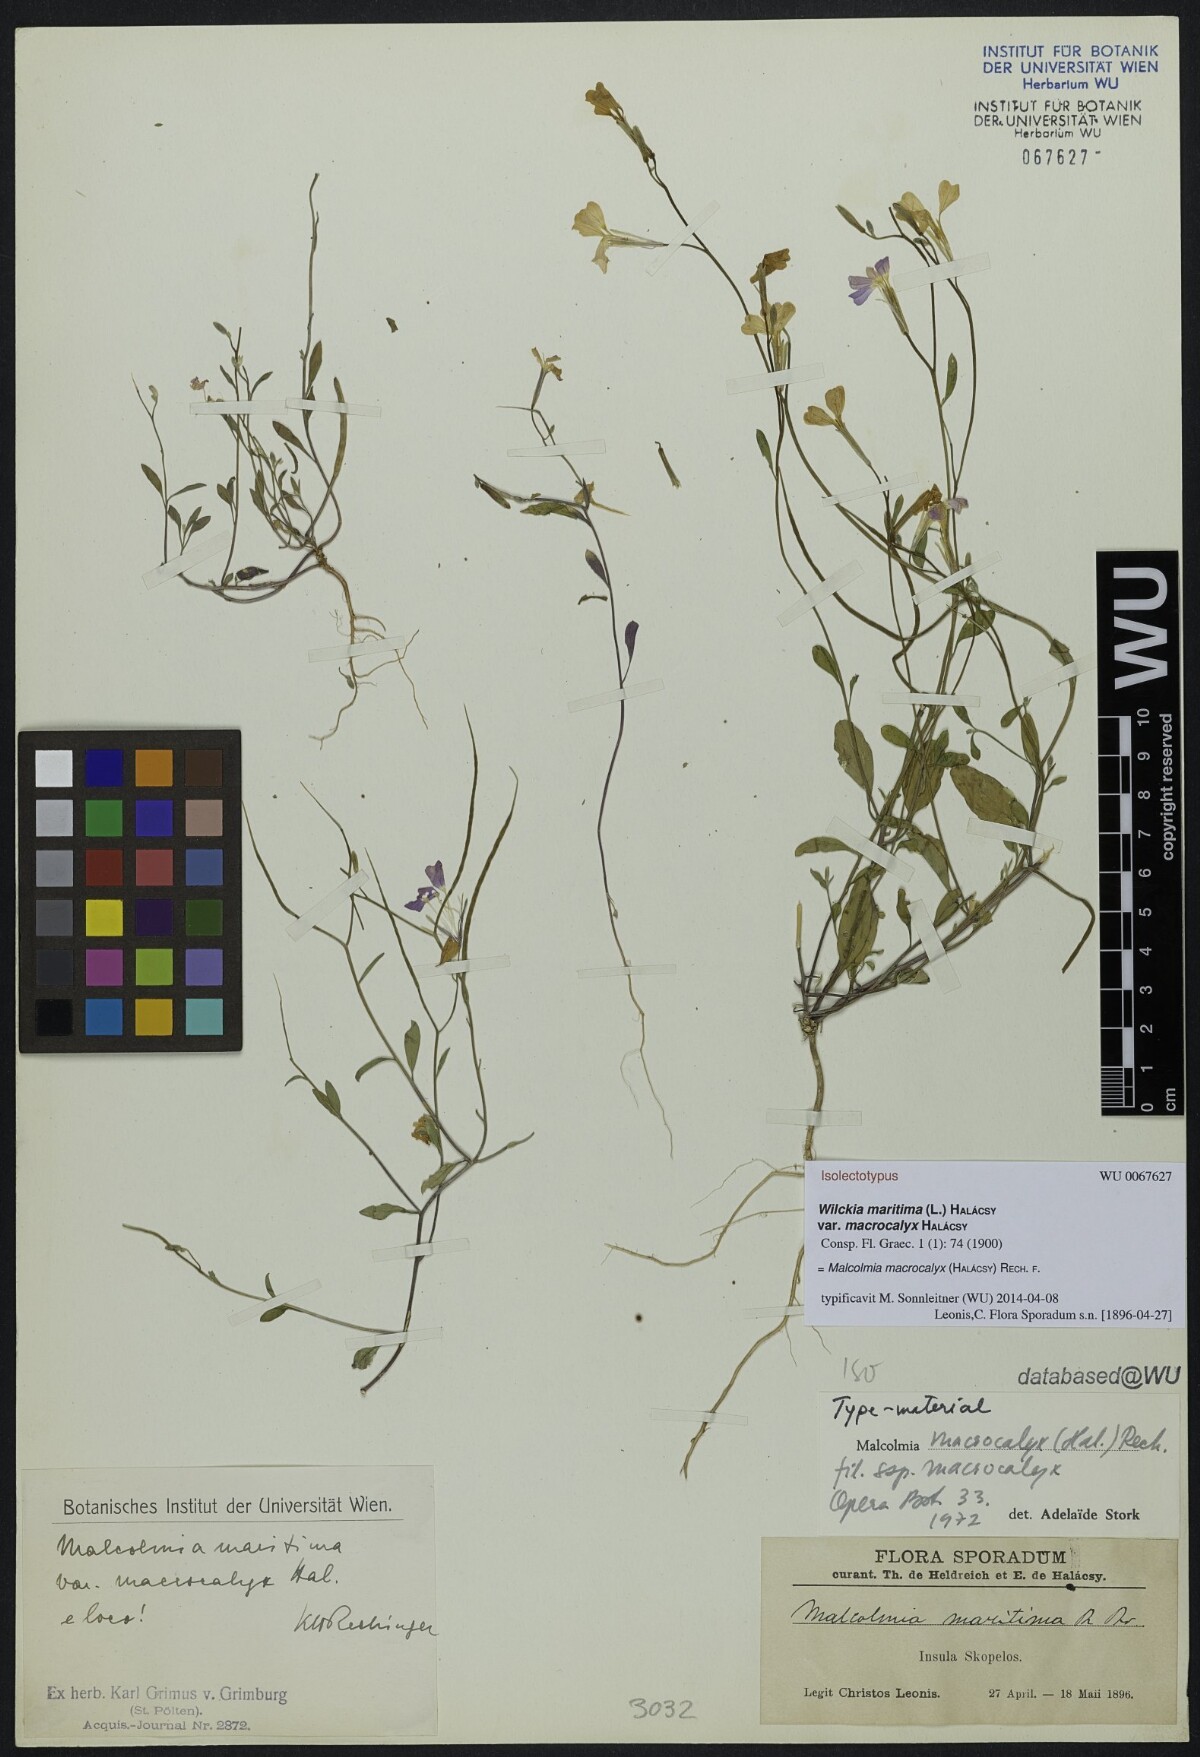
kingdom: Plantae
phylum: Tracheophyta
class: Magnoliopsida
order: Brassicales
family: Brassicaceae
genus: Malcolmia
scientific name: Malcolmia macrocalyx
